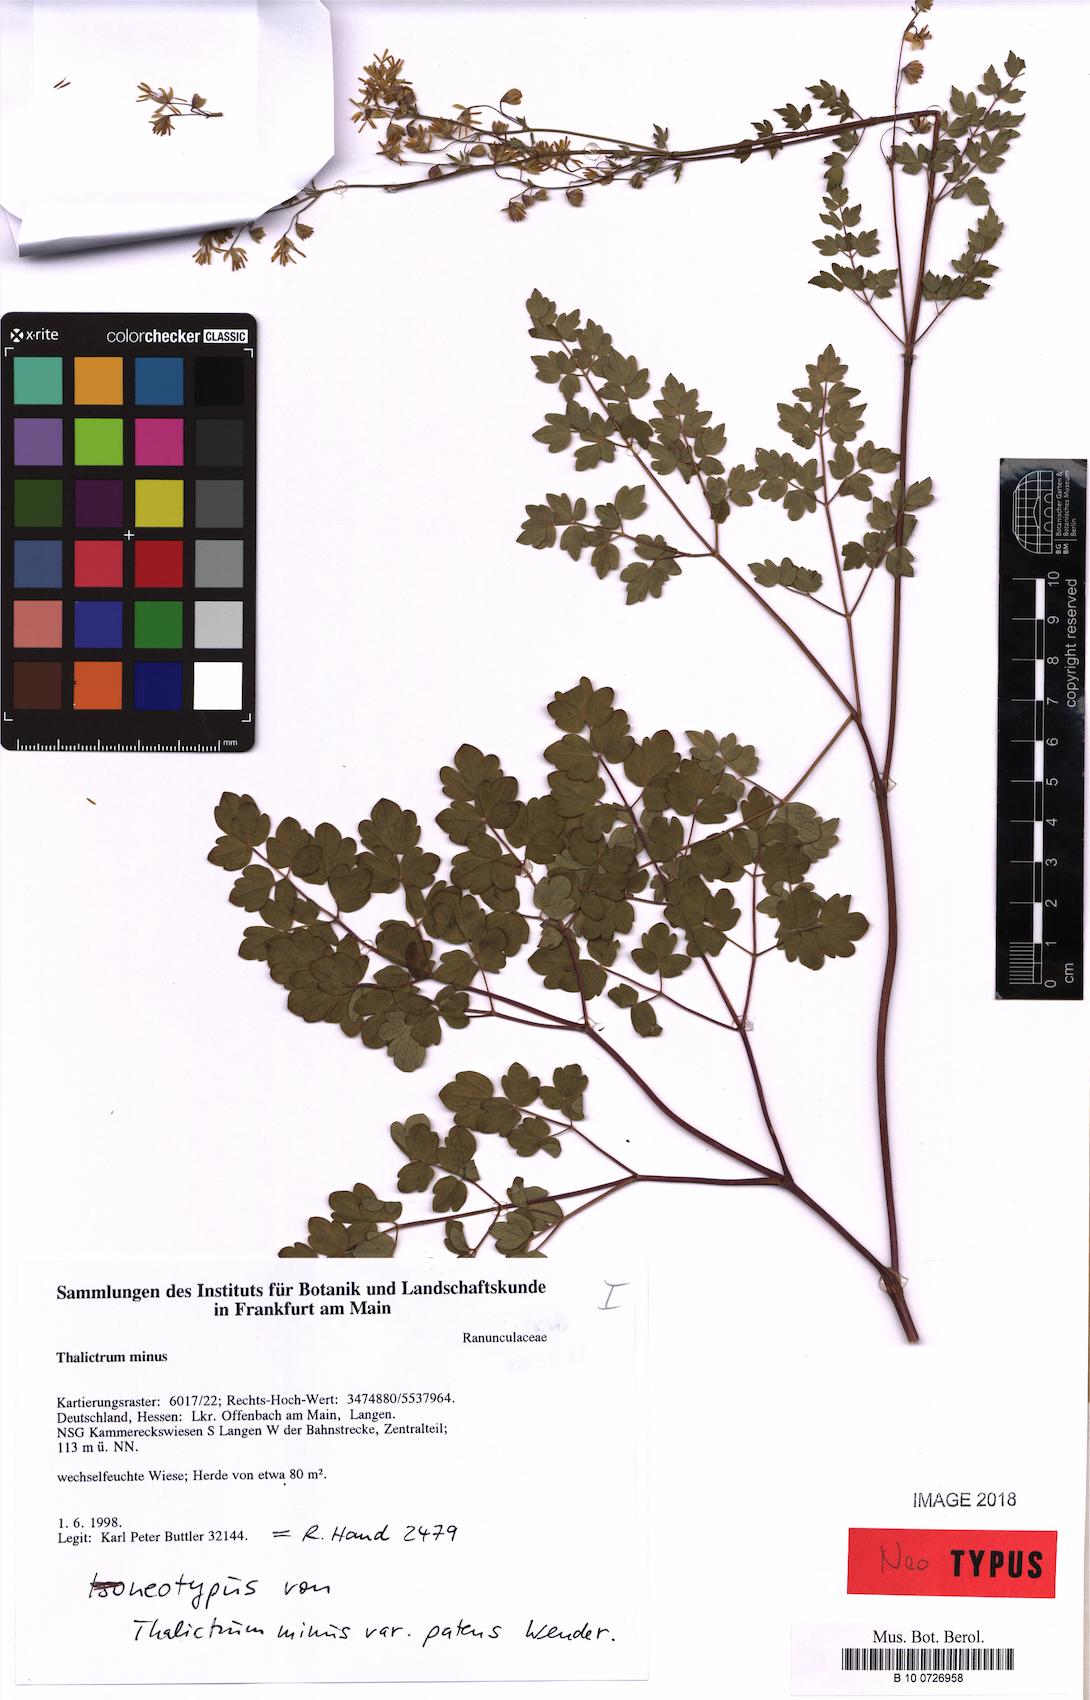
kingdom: Plantae
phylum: Tracheophyta
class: Magnoliopsida
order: Ranunculales
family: Ranunculaceae
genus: Thalictrum
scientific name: Thalictrum minus
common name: Lesser meadow-rue
